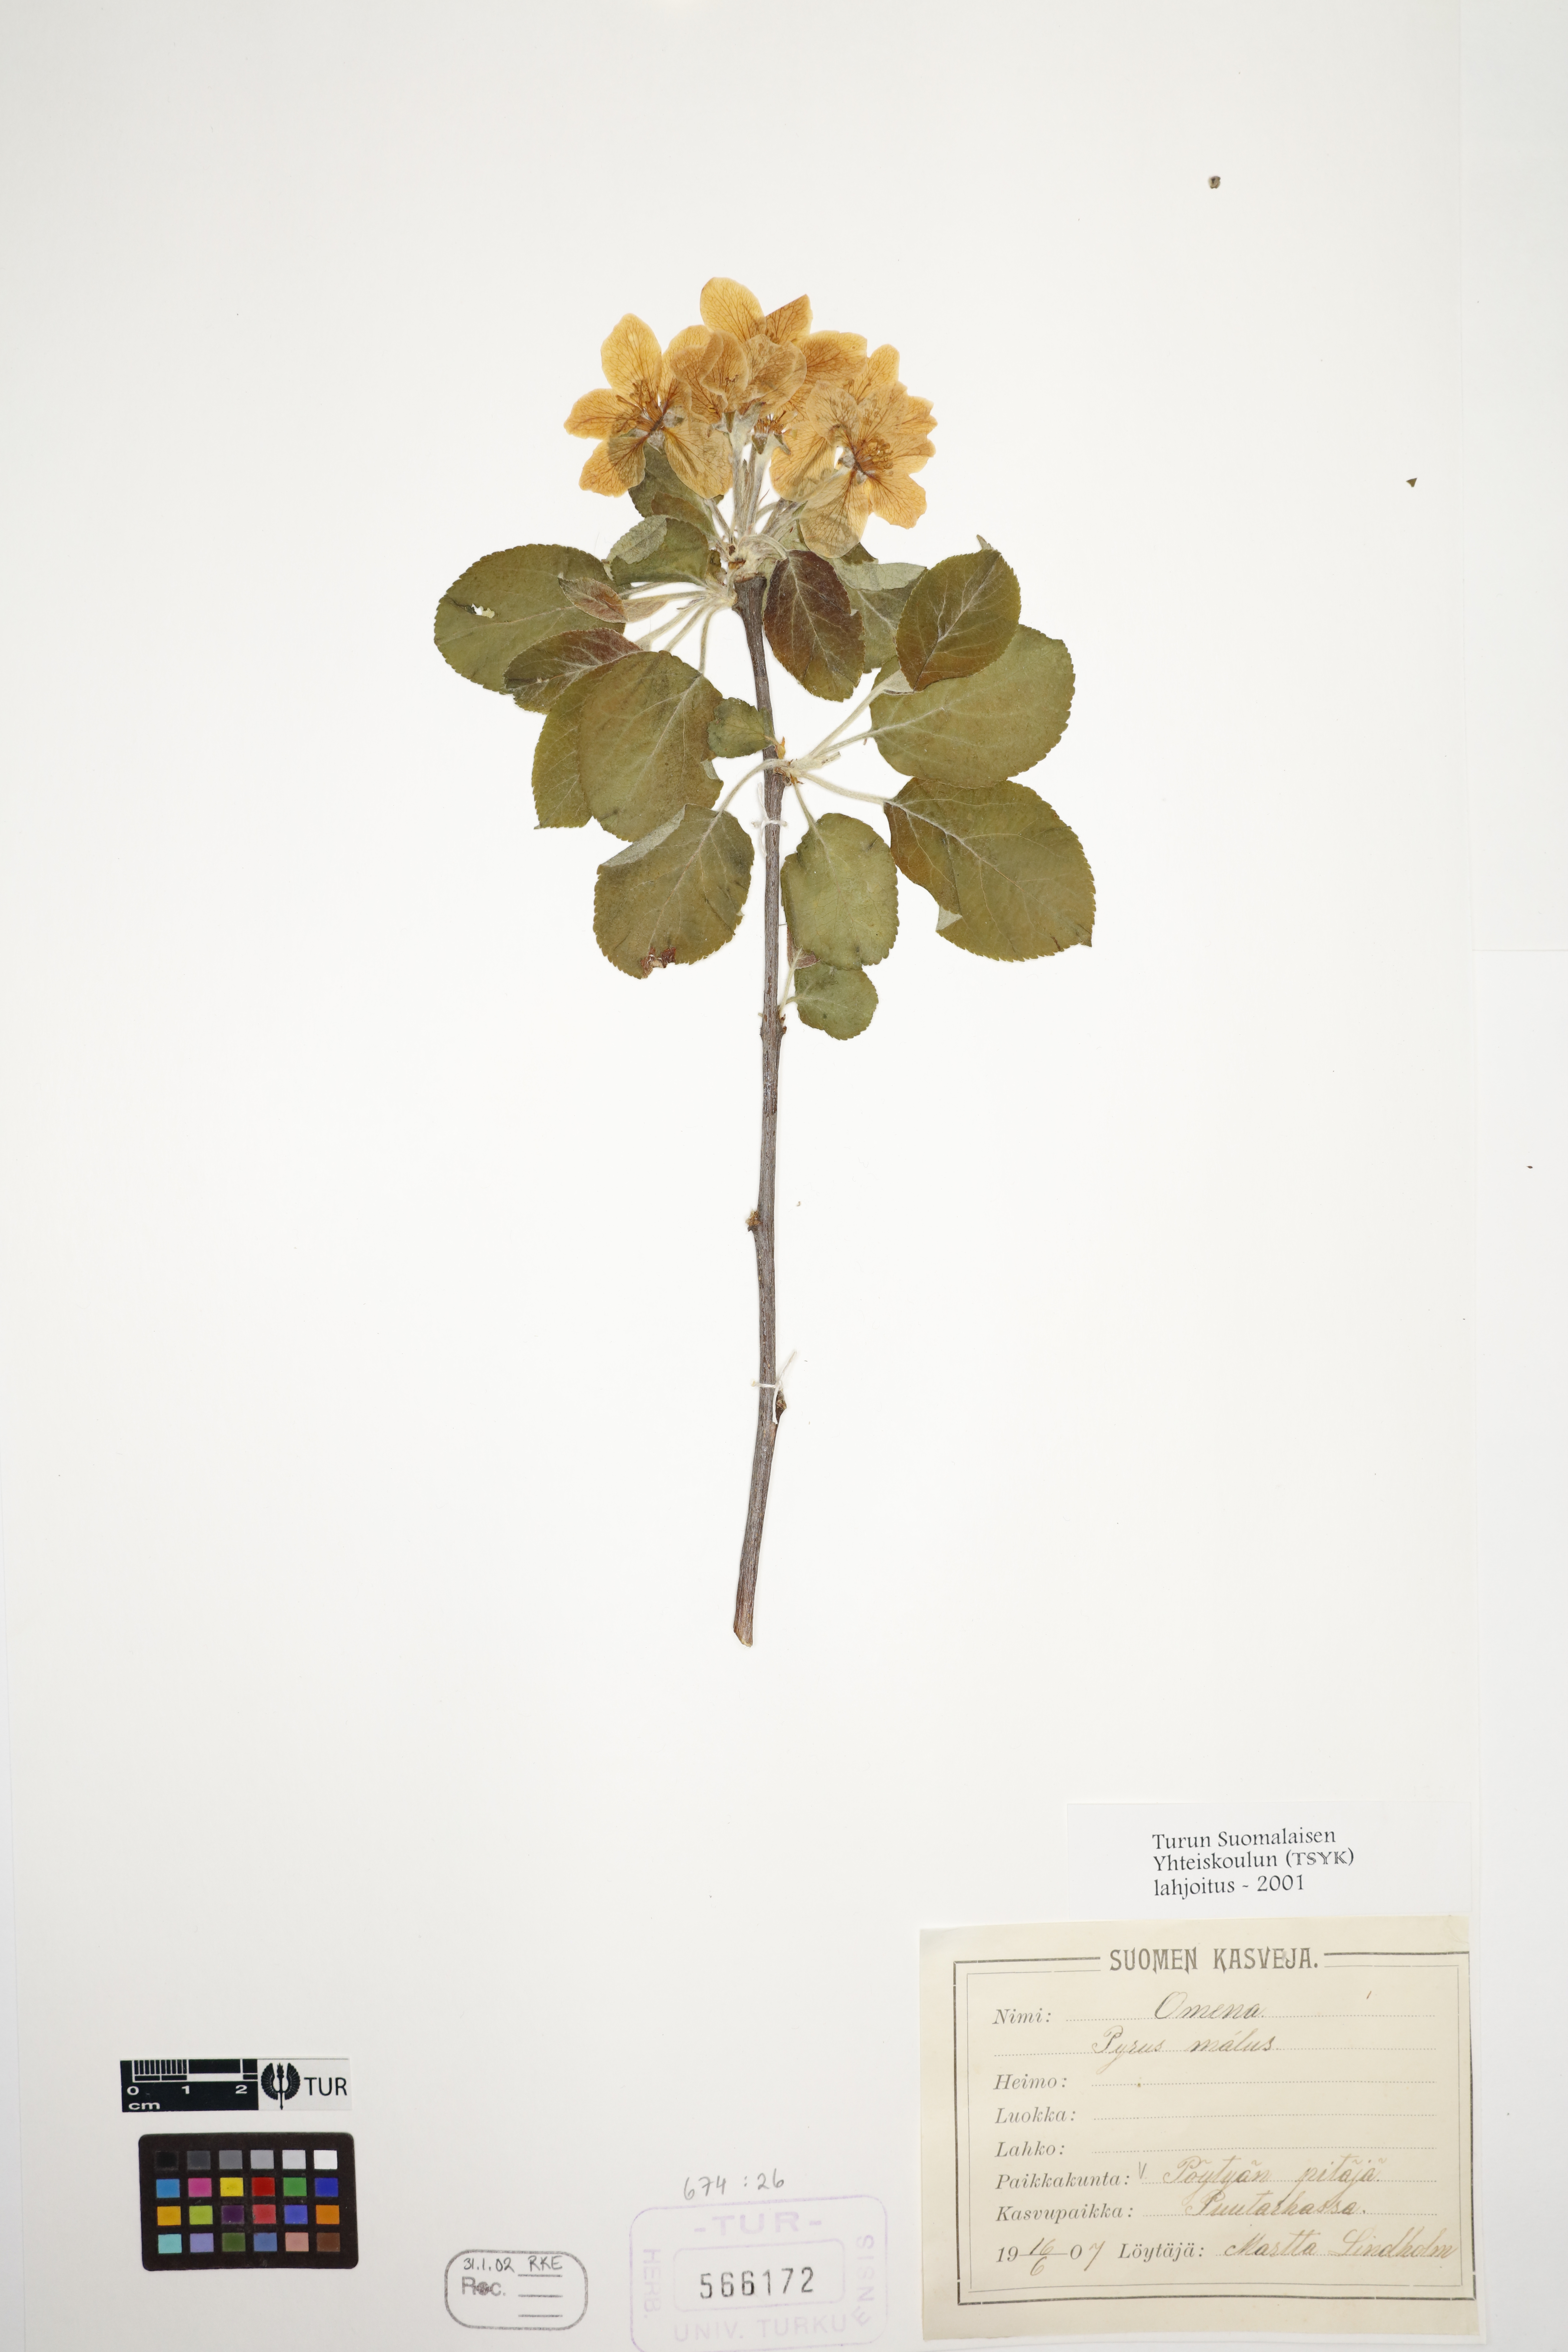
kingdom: Plantae
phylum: Tracheophyta
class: Magnoliopsida
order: Rosales
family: Rosaceae
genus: Malus
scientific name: Malus domestica
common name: Apple
